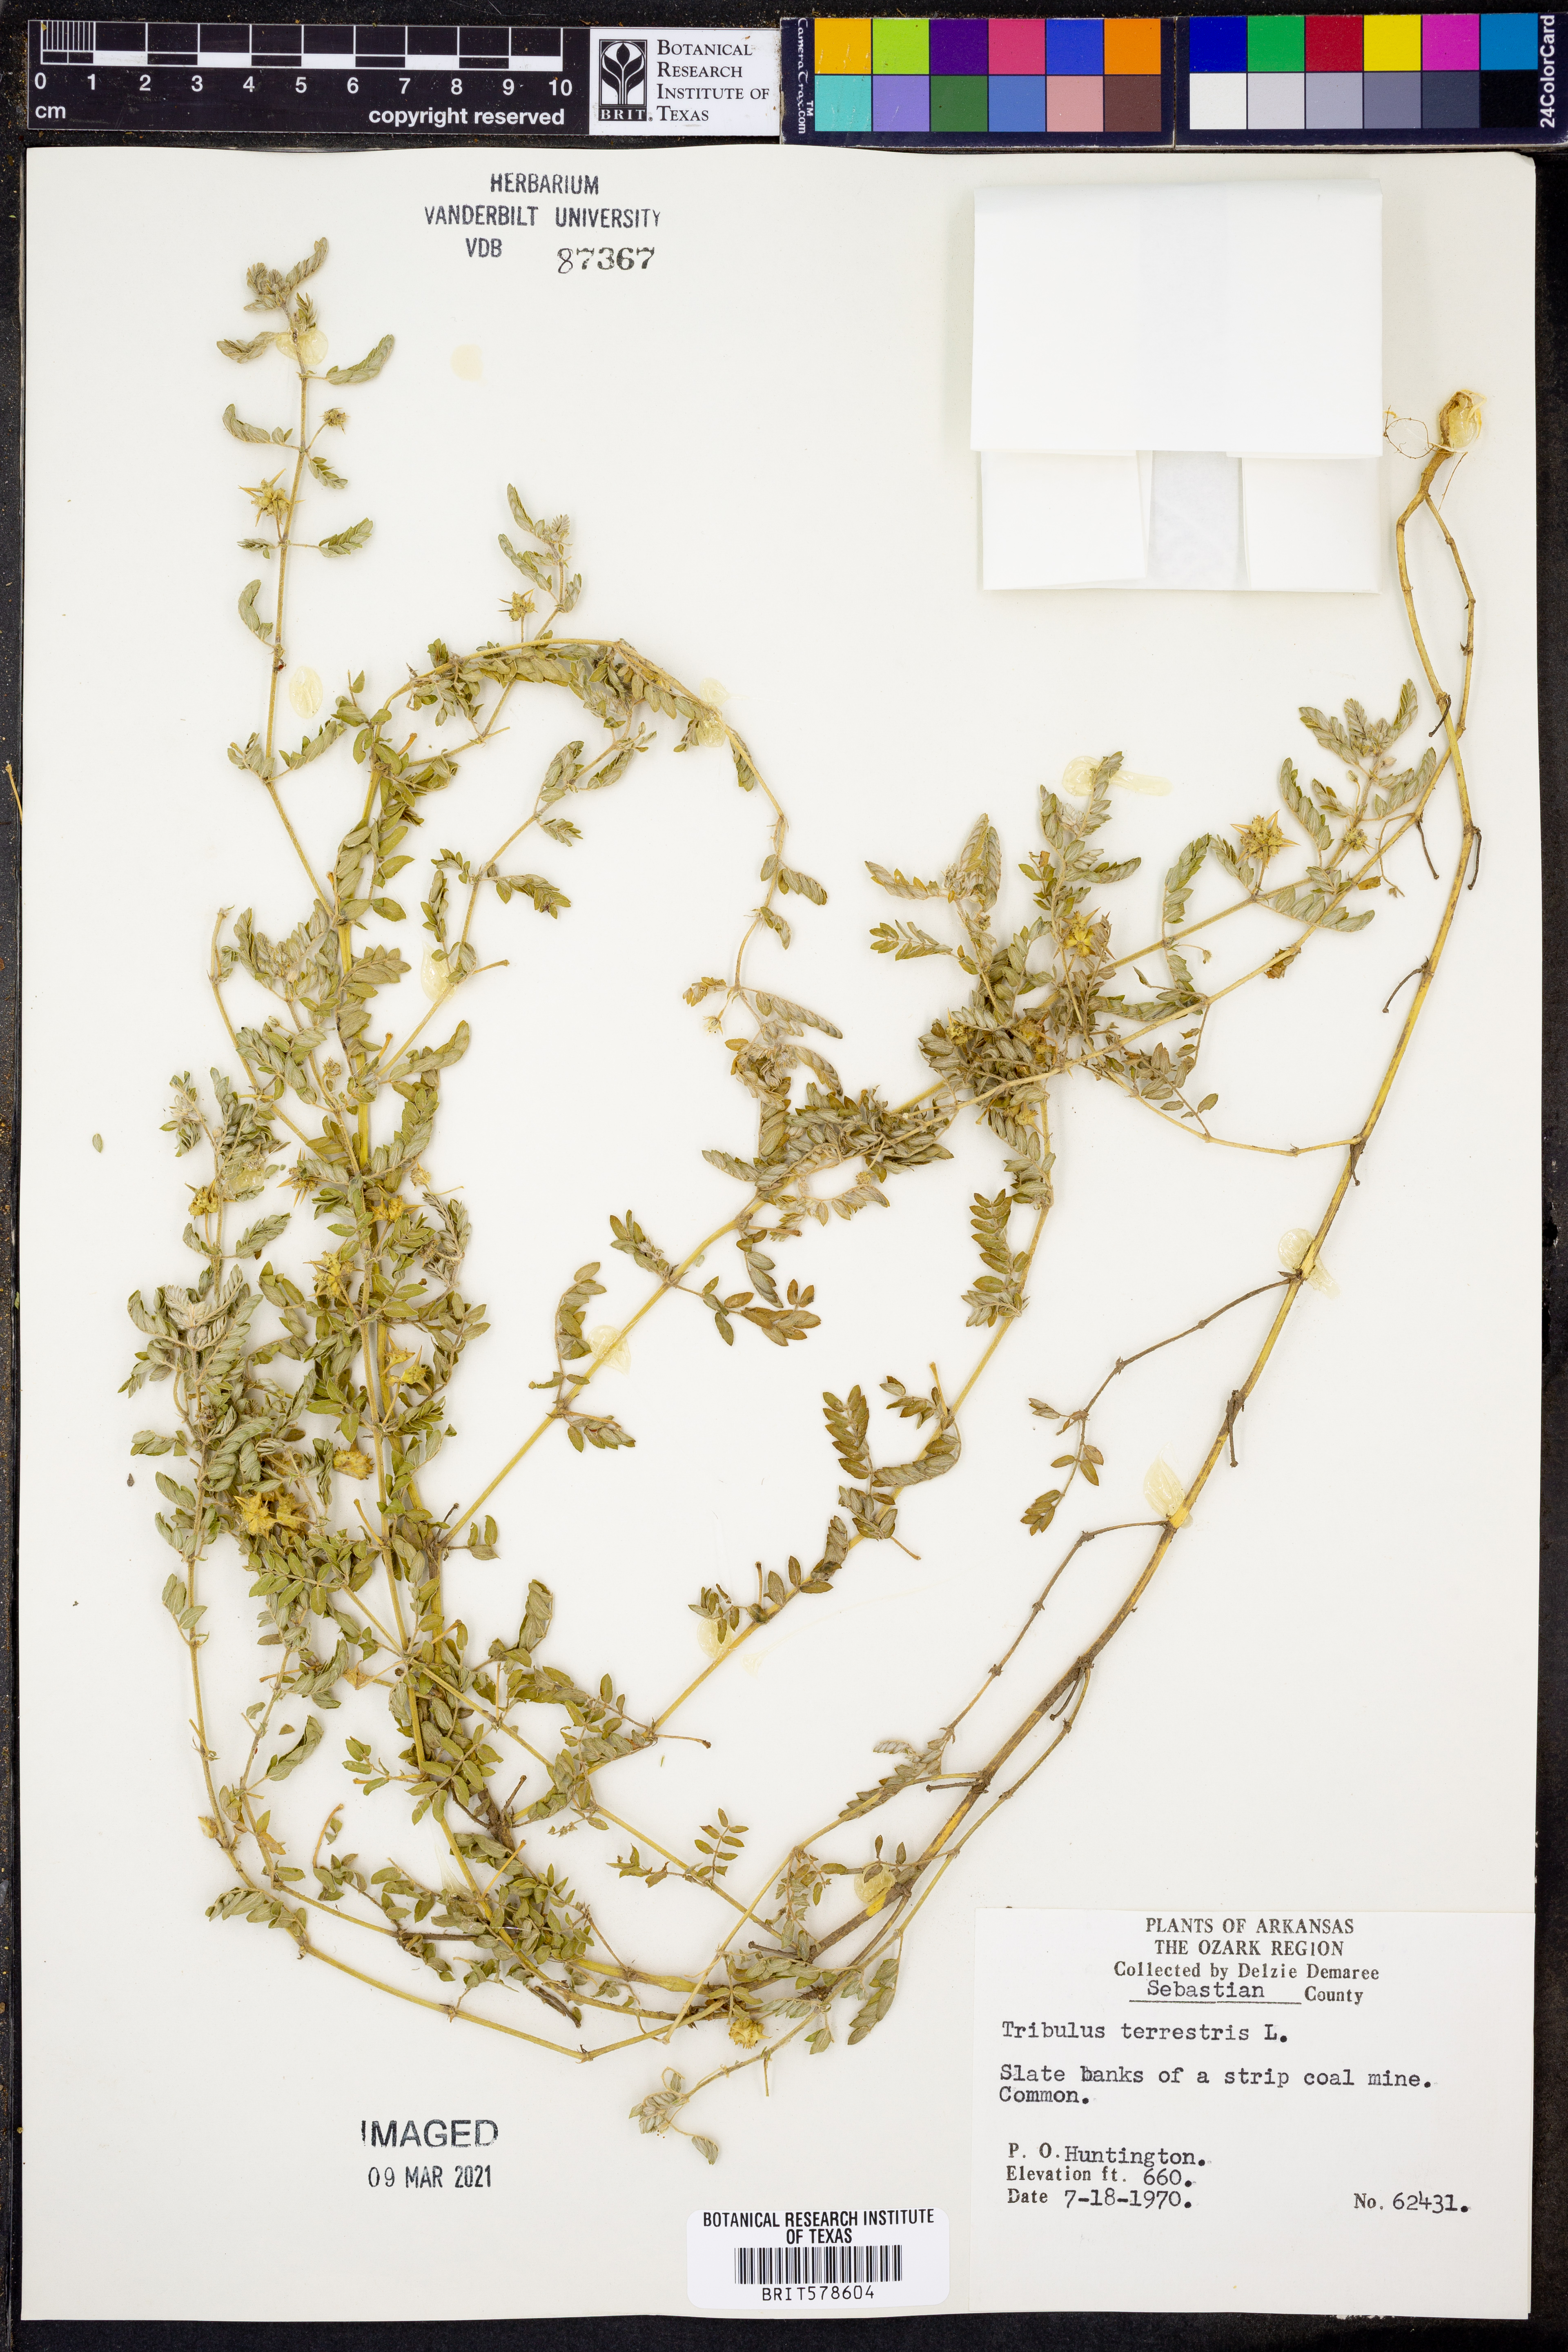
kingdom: Plantae
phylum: Tracheophyta
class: Magnoliopsida
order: Zygophyllales
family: Zygophyllaceae
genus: Tribulus
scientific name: Tribulus terrestris
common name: Puncturevine
